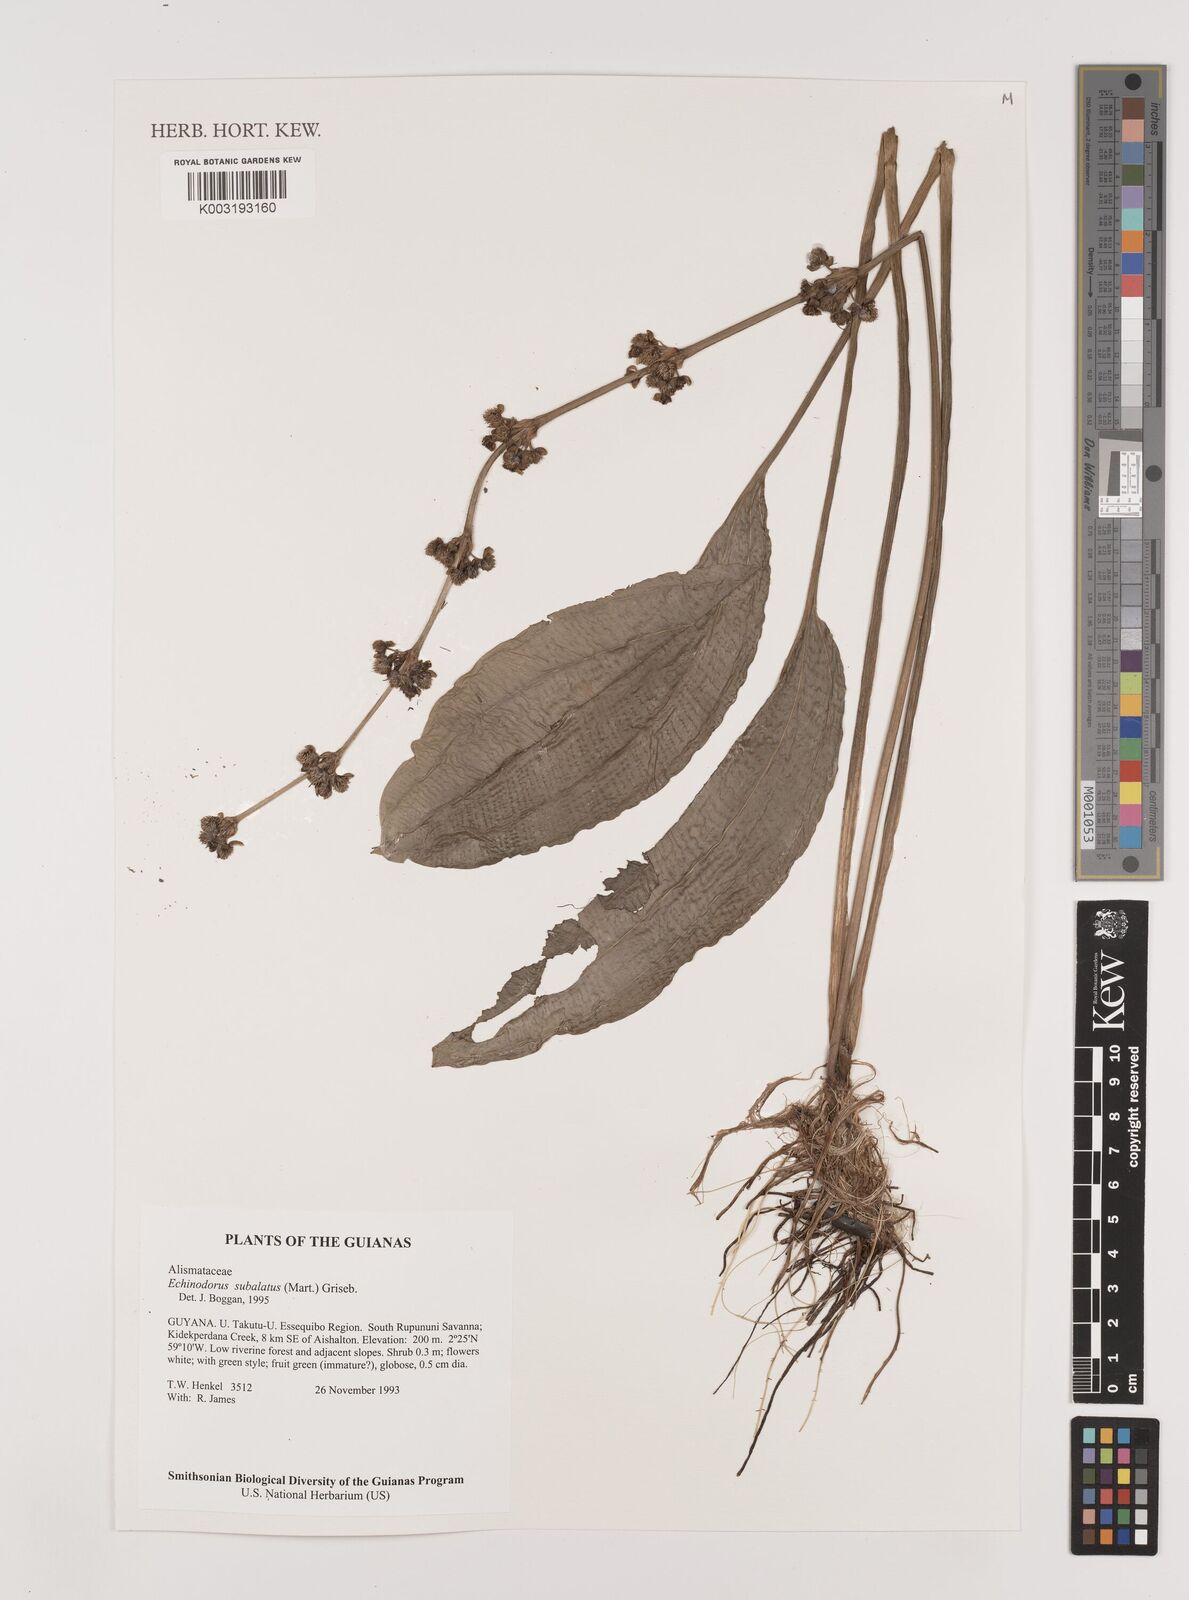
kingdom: Plantae
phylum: Tracheophyta
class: Liliopsida
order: Alismatales
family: Alismataceae
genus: Aquarius
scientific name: Aquarius subulatus
